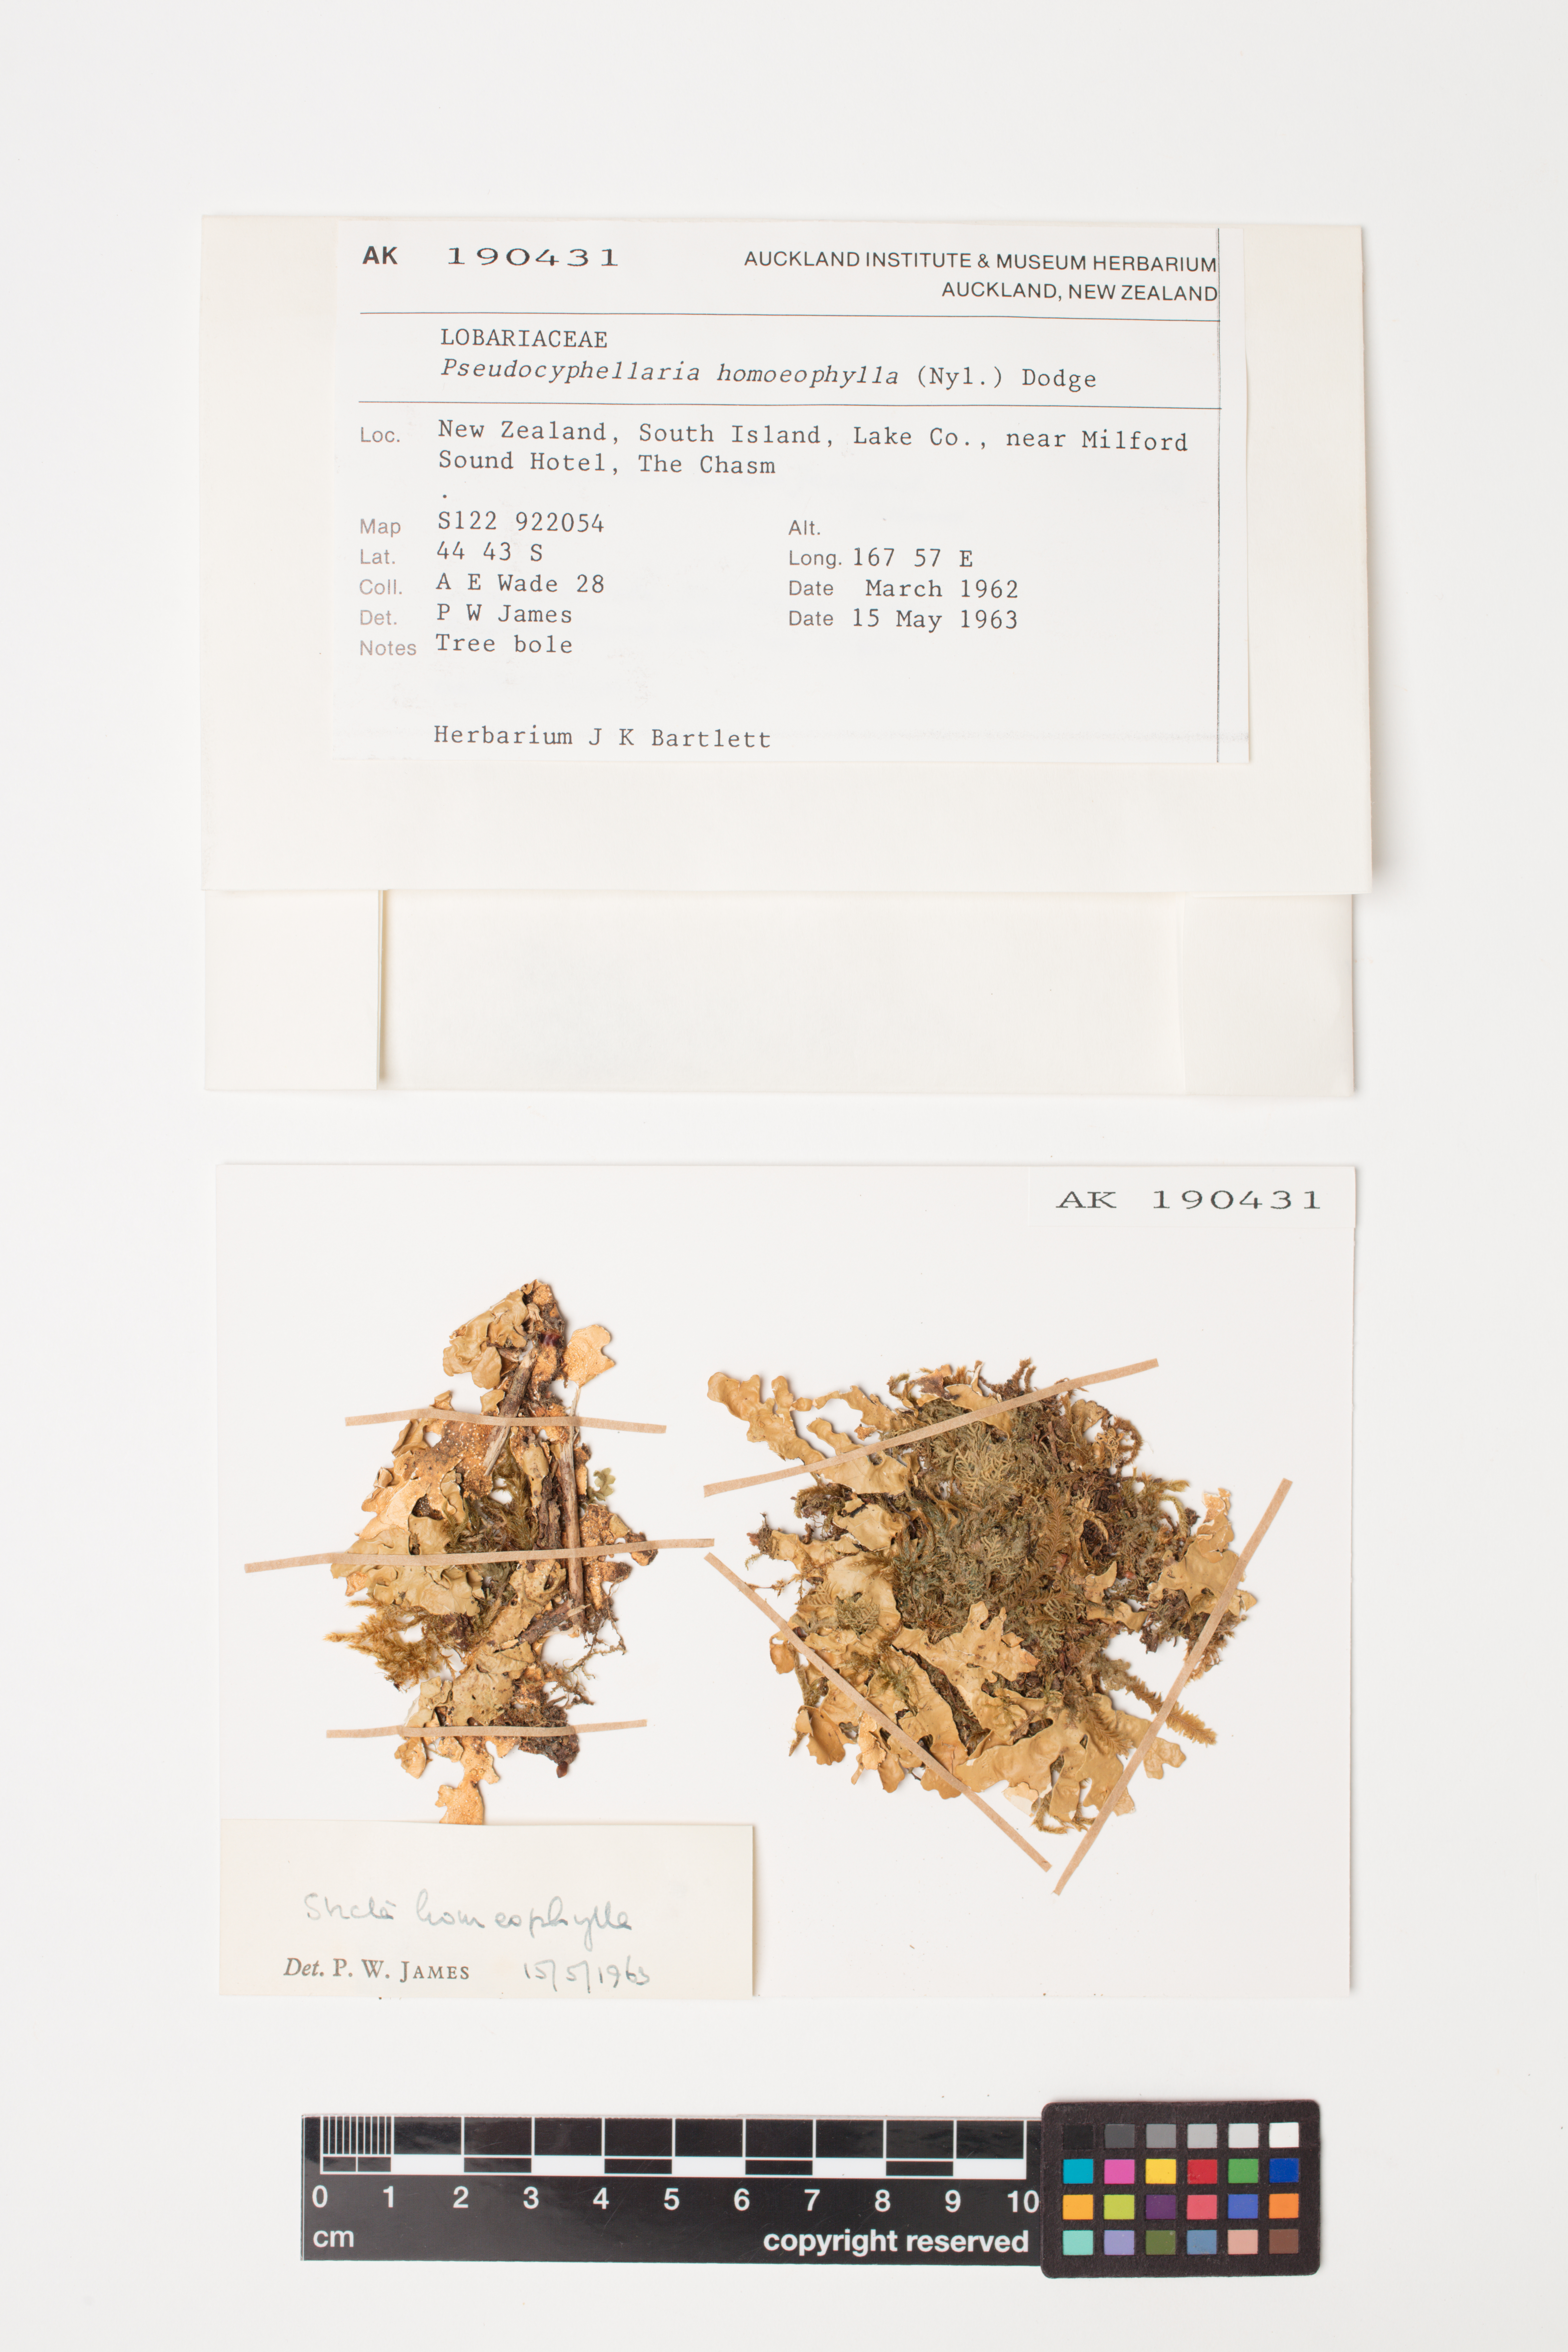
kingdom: Fungi
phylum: Ascomycota
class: Lecanoromycetes
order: Peltigerales
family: Lobariaceae
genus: Pseudocyphellaria
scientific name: Pseudocyphellaria homeophylla
